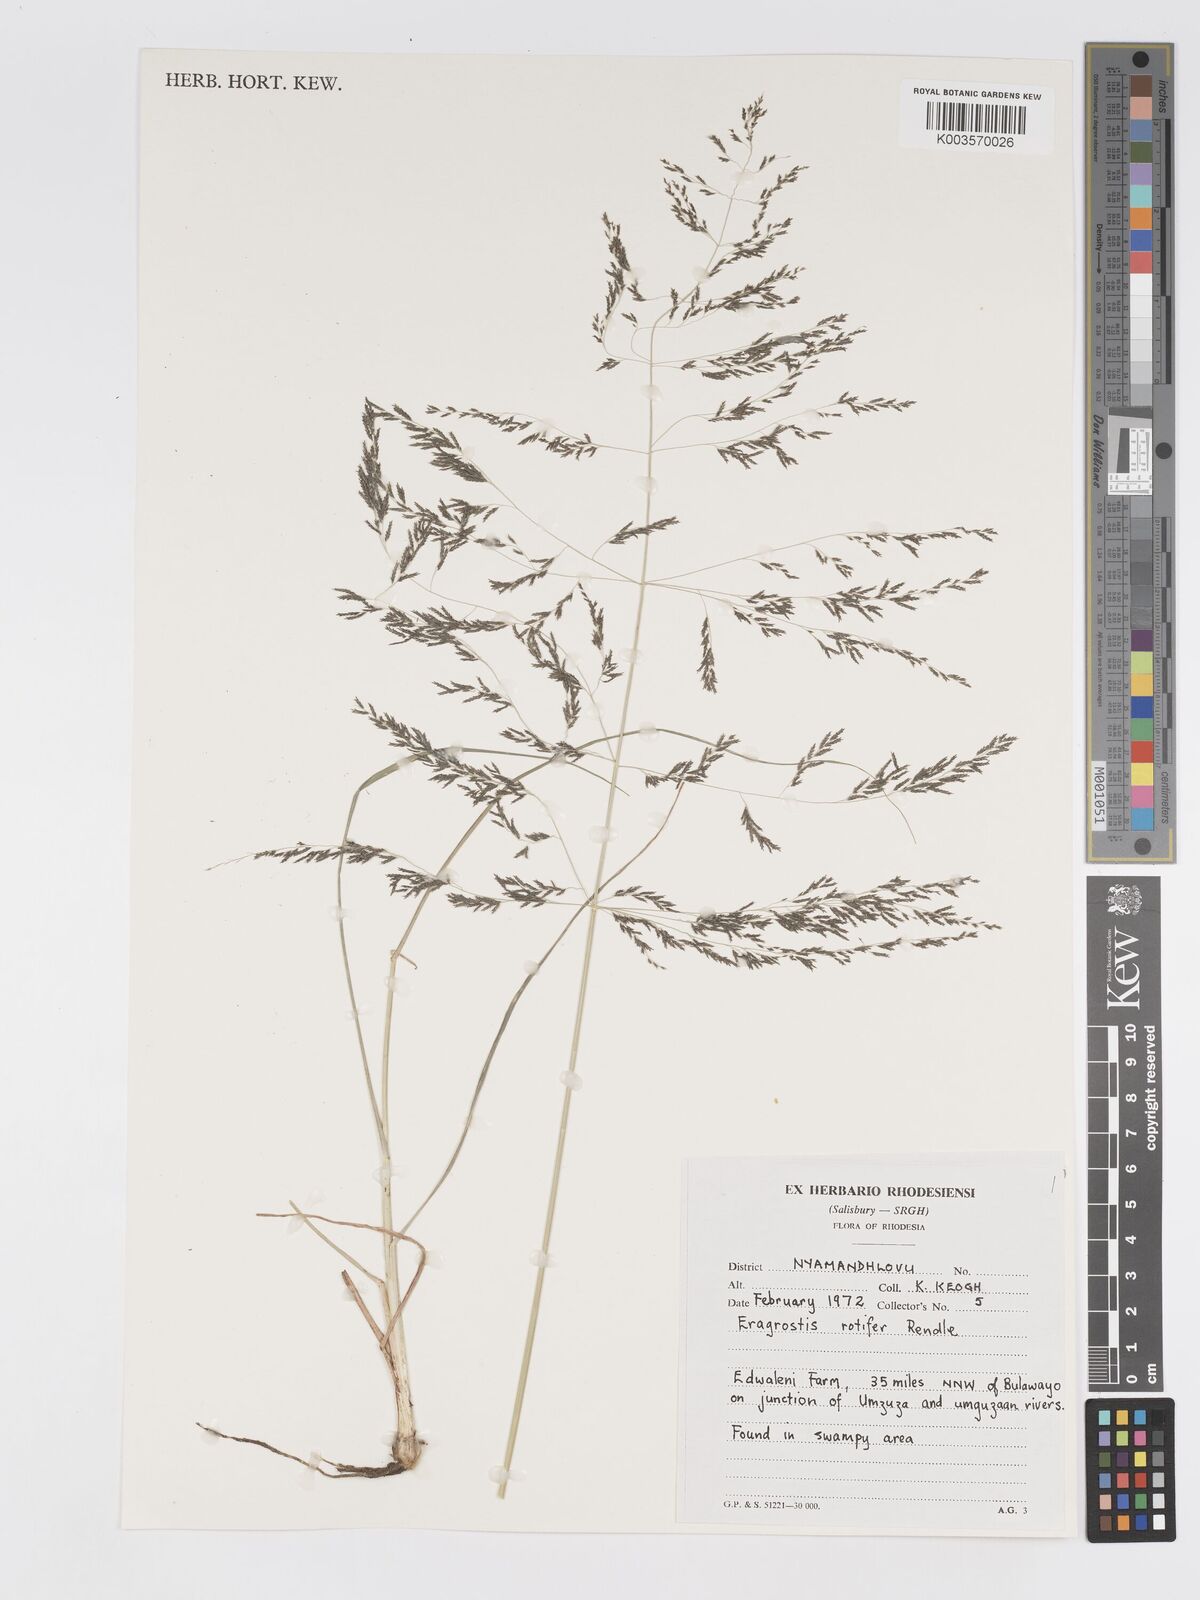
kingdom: Plantae
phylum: Tracheophyta
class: Liliopsida
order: Poales
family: Poaceae
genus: Eragrostis
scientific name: Eragrostis rotifer
